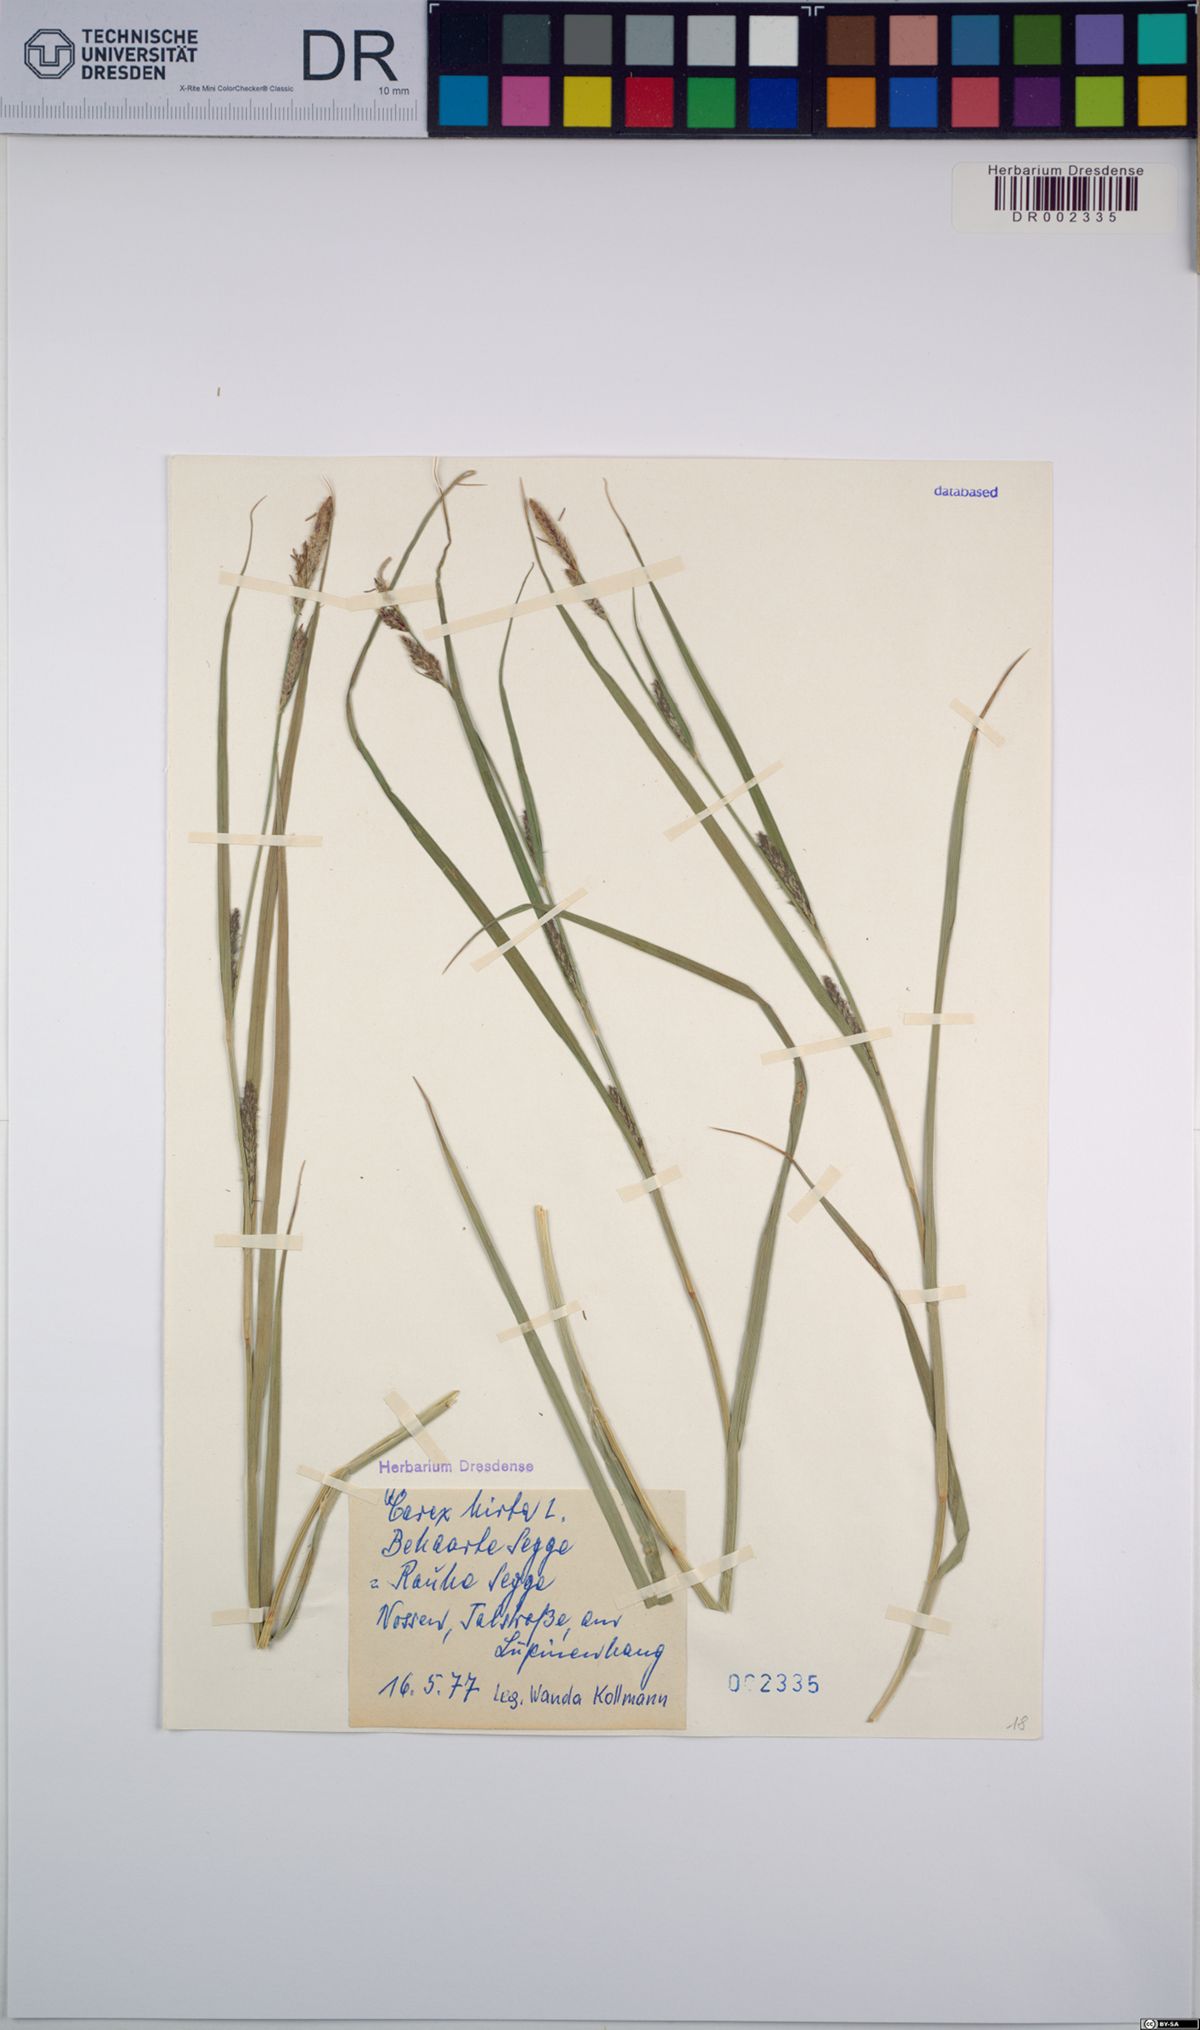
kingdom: Plantae
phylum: Tracheophyta
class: Liliopsida
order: Poales
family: Cyperaceae
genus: Carex
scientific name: Carex hirta
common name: Hairy sedge
